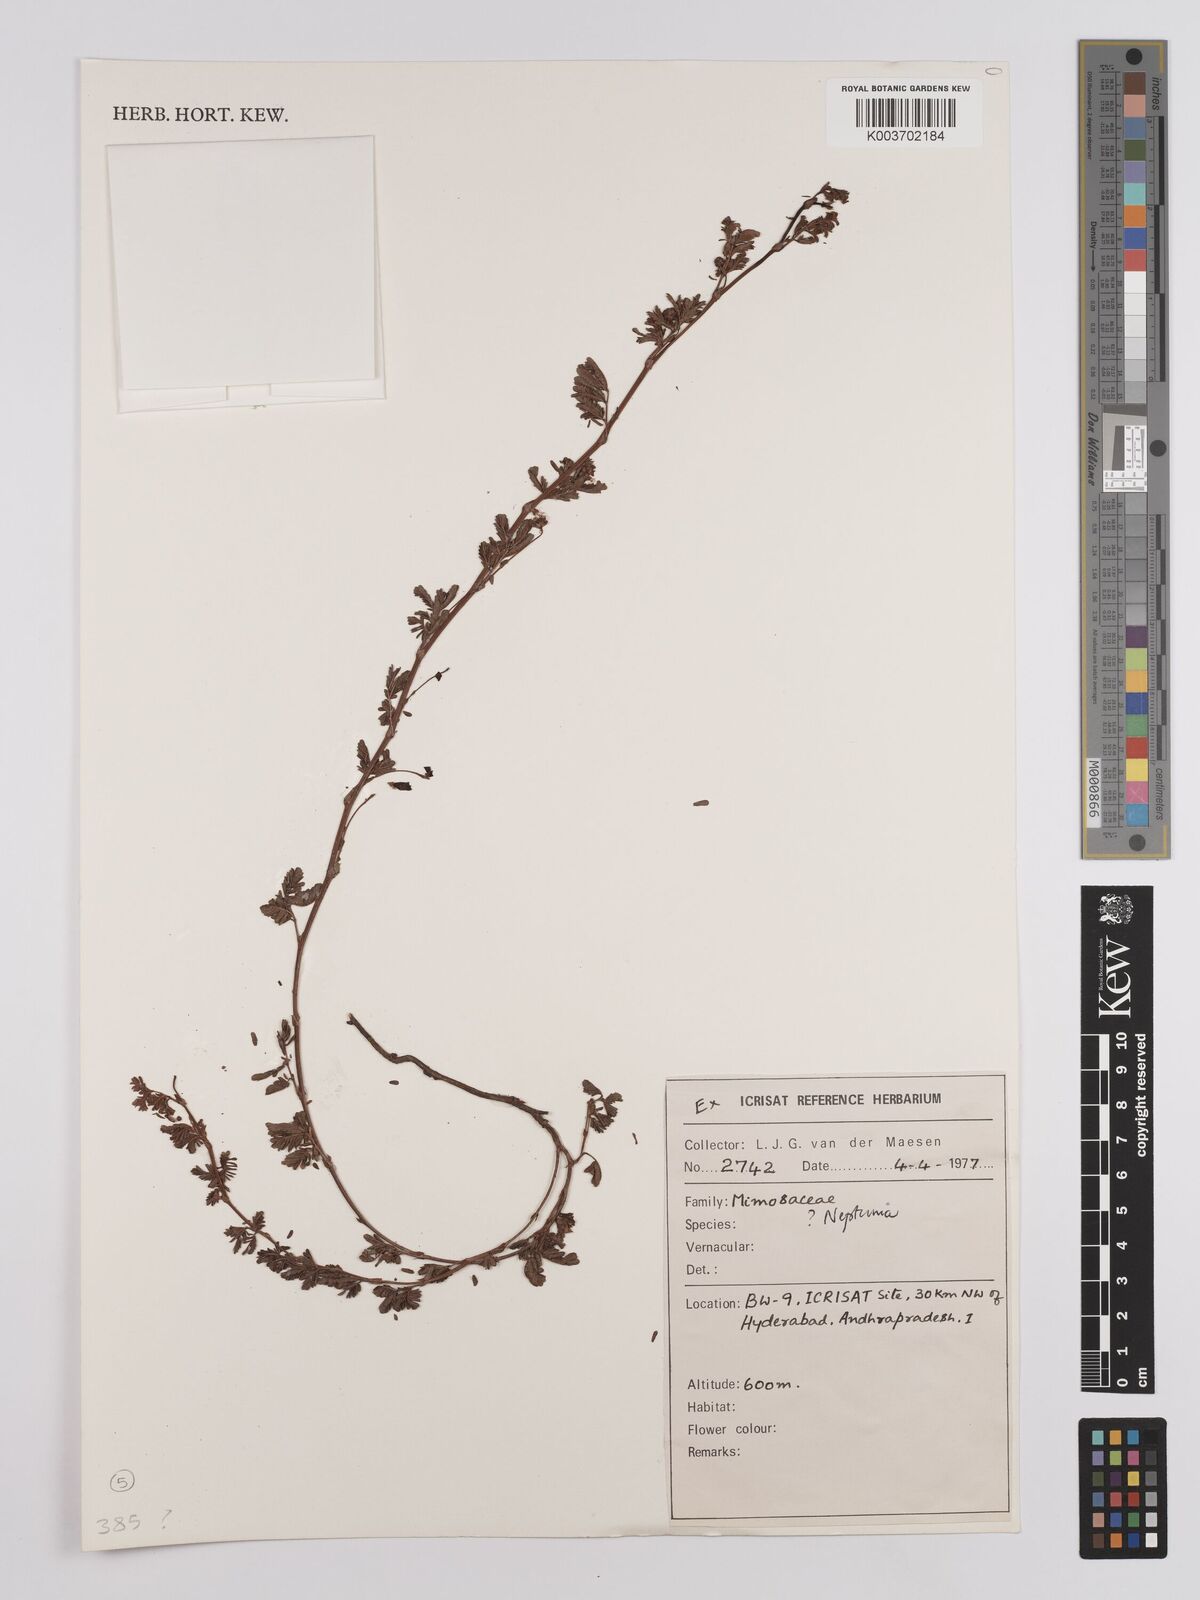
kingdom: Plantae
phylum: Tracheophyta
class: Magnoliopsida
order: Fabales
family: Fabaceae
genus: Neptunia
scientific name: Neptunia
